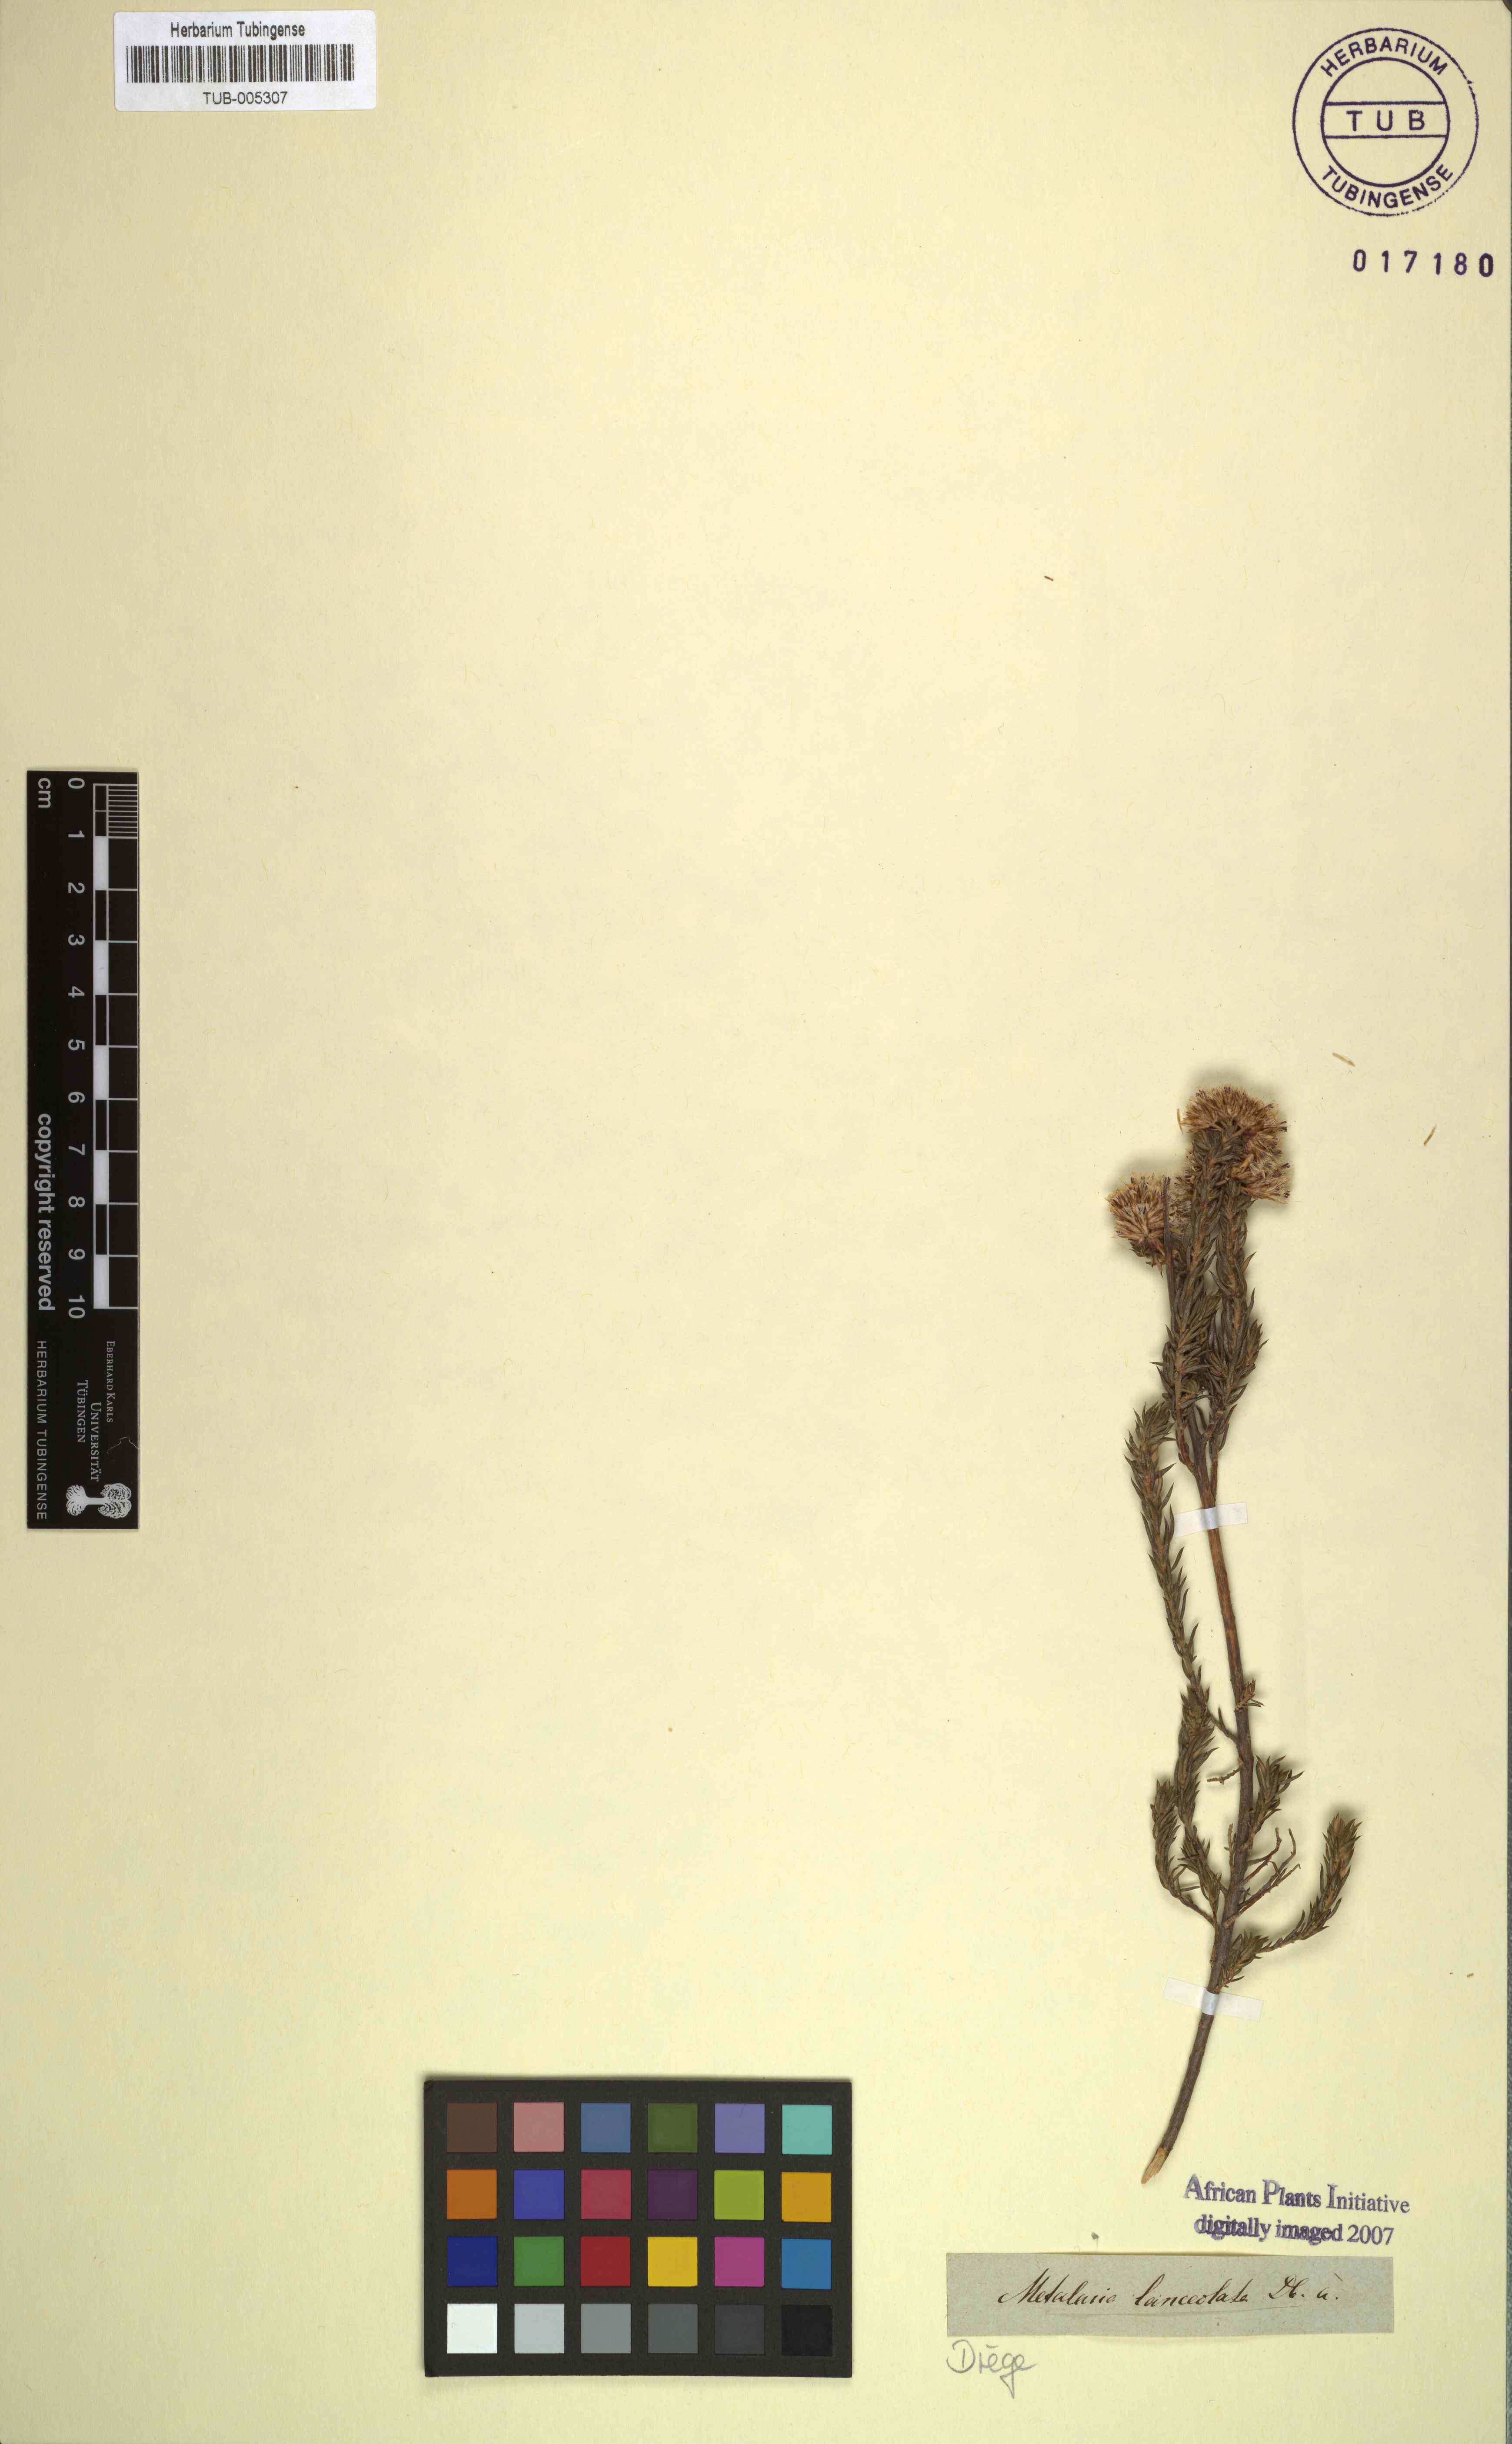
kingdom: Plantae
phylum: Tracheophyta
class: Magnoliopsida
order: Asterales
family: Asteraceae
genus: Metalasia
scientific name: Metalasia pulcherrima
